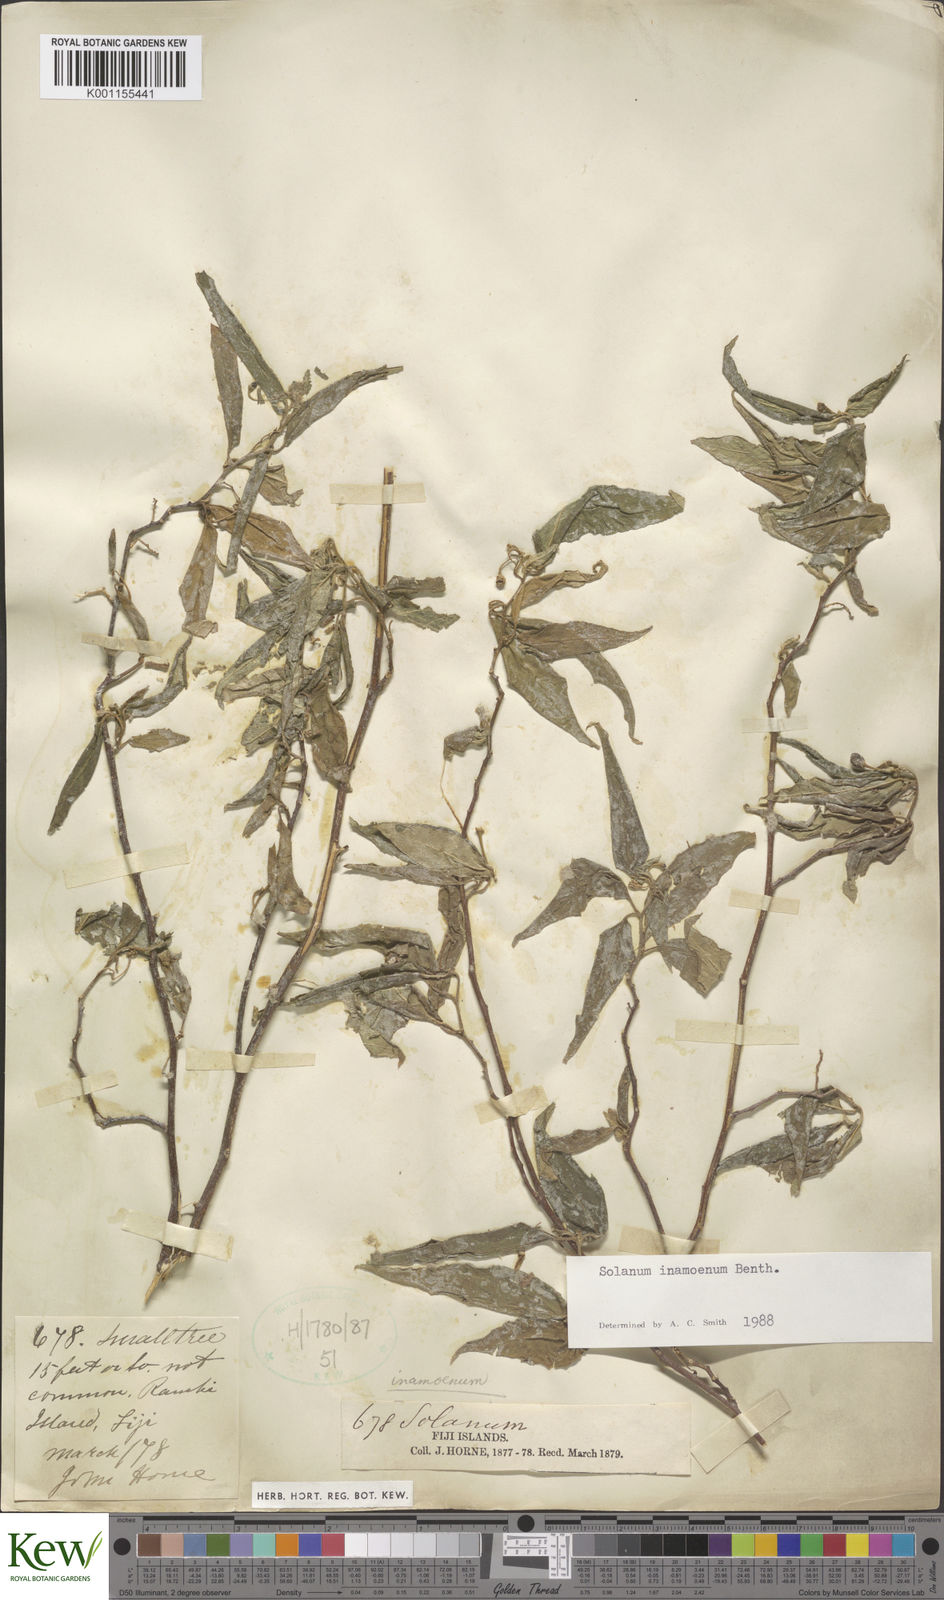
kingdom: Plantae
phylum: Tracheophyta
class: Magnoliopsida
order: Solanales
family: Solanaceae
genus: Solanum
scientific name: Solanum inamoenum
